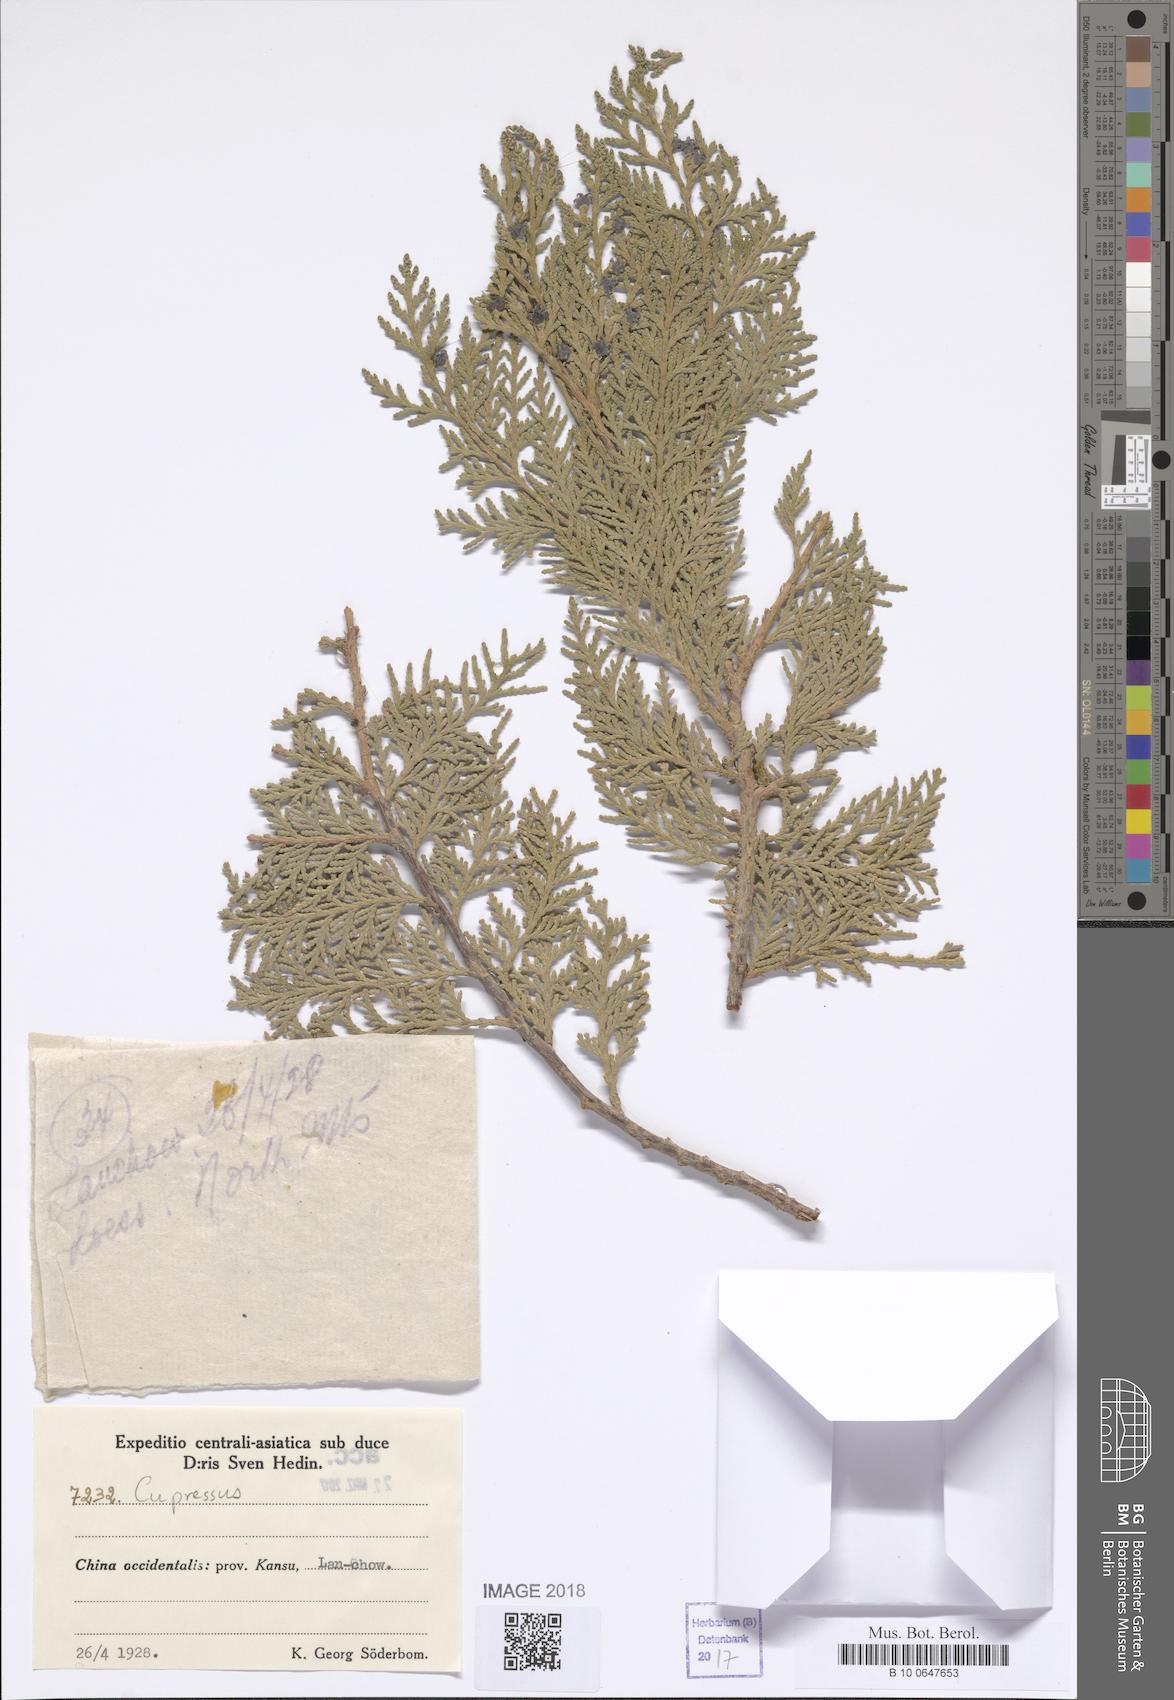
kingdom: Plantae
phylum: Tracheophyta
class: Pinopsida
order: Pinales
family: Cupressaceae
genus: Cupressus
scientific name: Cupressus
